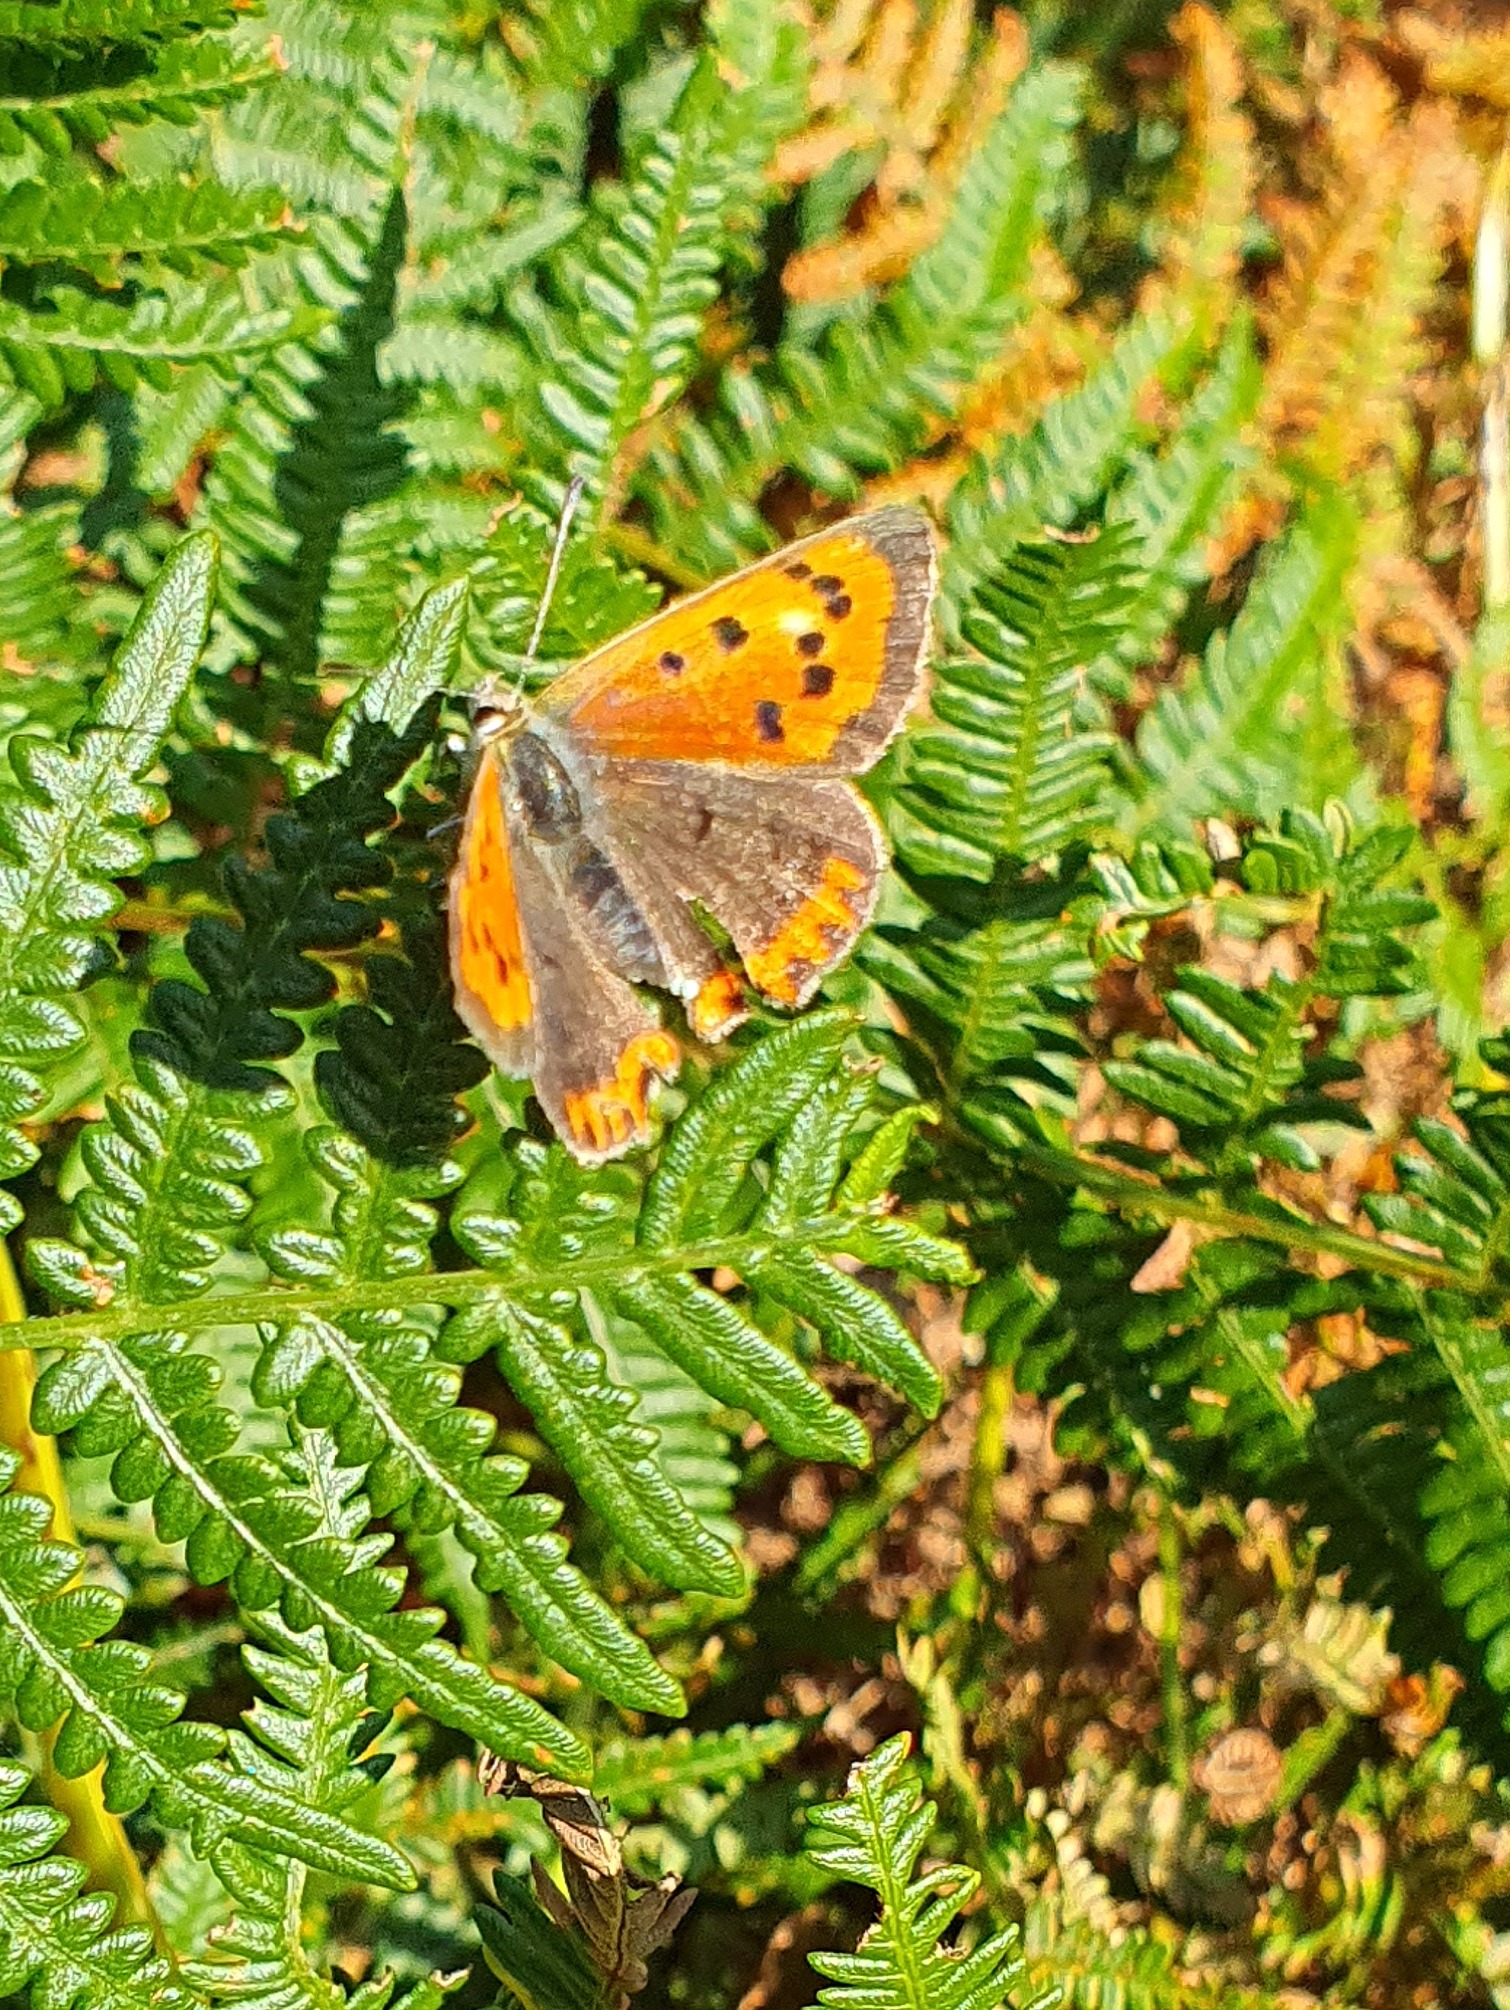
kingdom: Animalia
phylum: Arthropoda
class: Insecta
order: Lepidoptera
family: Lycaenidae
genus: Lycaena
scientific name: Lycaena phlaeas
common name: Lille ildfugl
